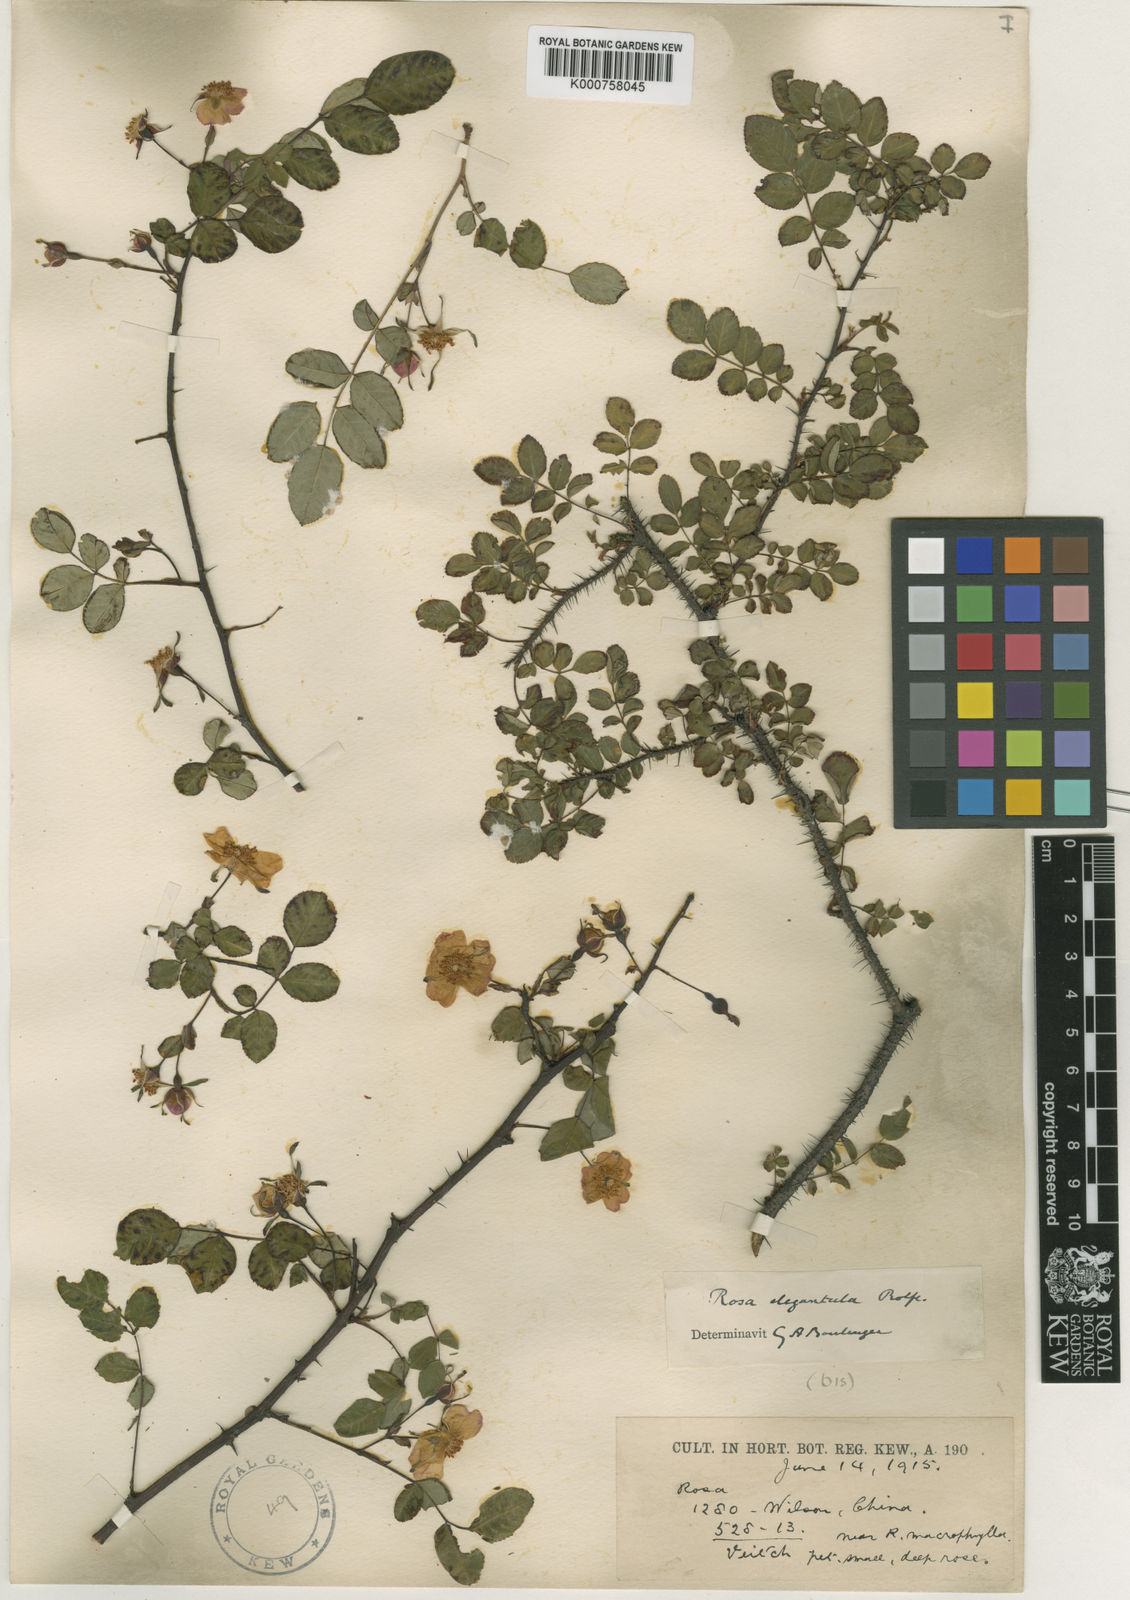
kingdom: Plantae
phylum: Tracheophyta
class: Magnoliopsida
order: Rosales
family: Rosaceae
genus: Rosa
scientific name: Rosa persetosa
